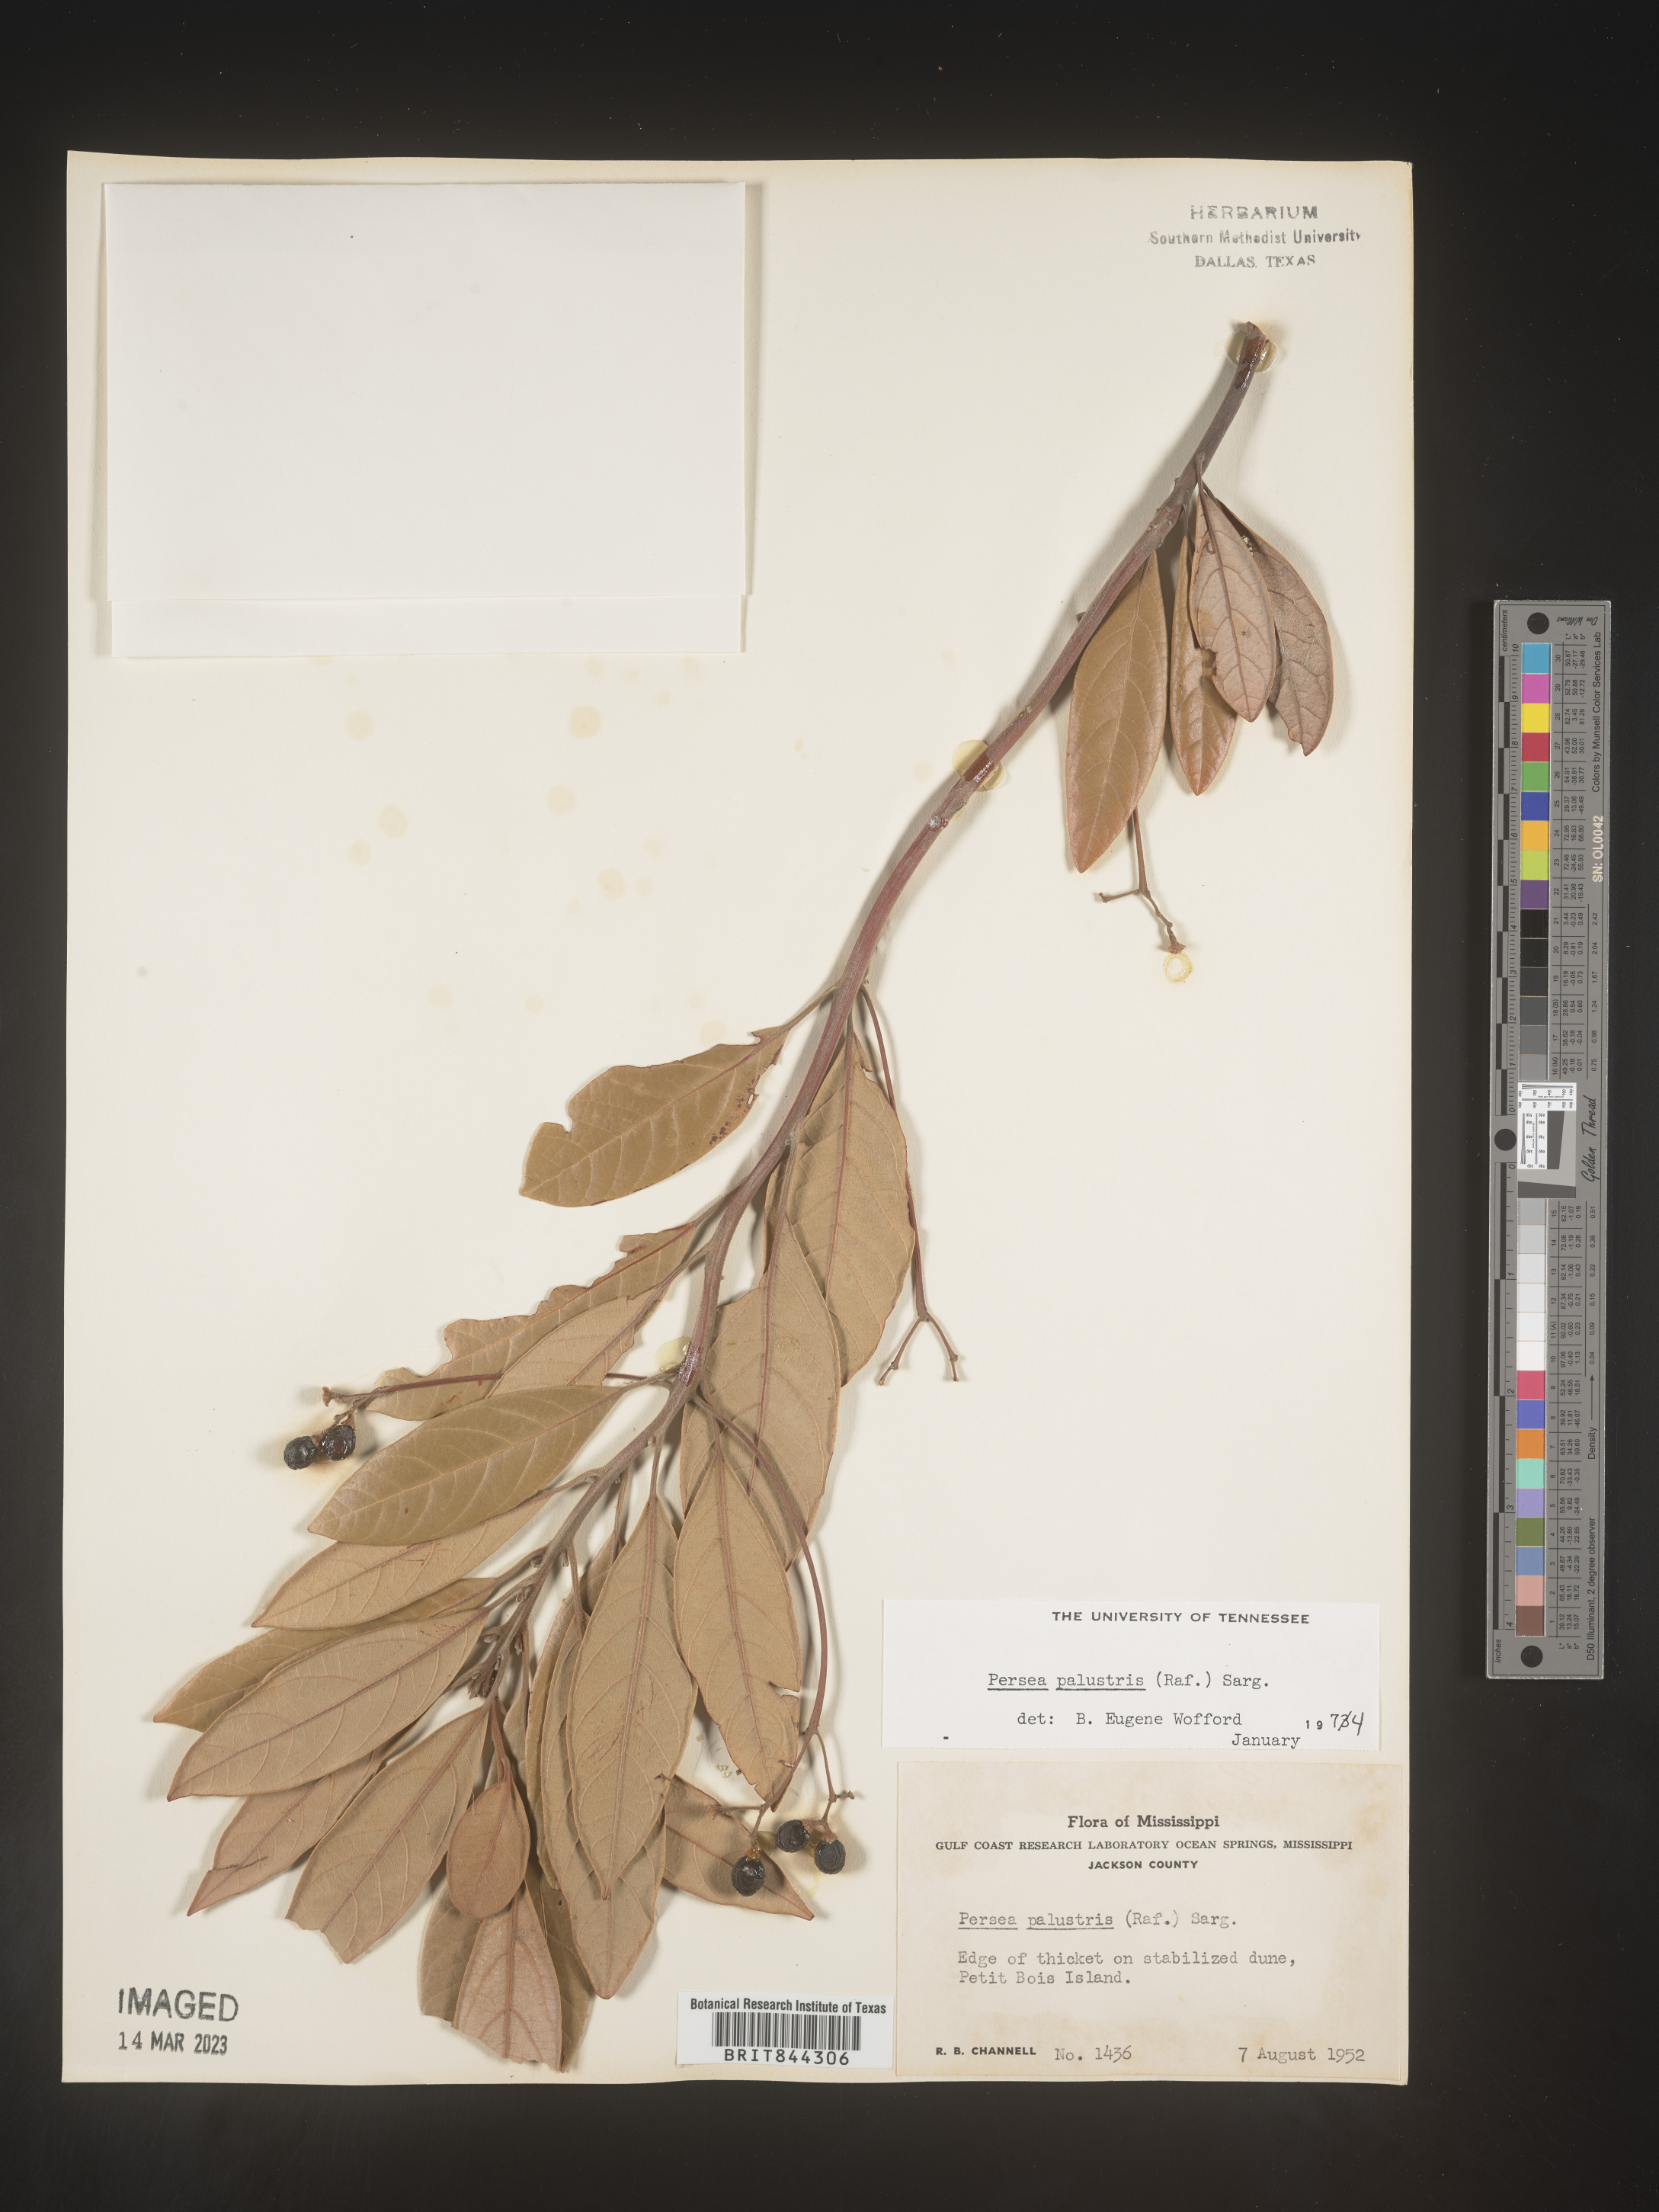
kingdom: Plantae
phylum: Tracheophyta
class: Magnoliopsida
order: Laurales
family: Lauraceae
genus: Persea
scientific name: Persea palustris
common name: Swampbay
